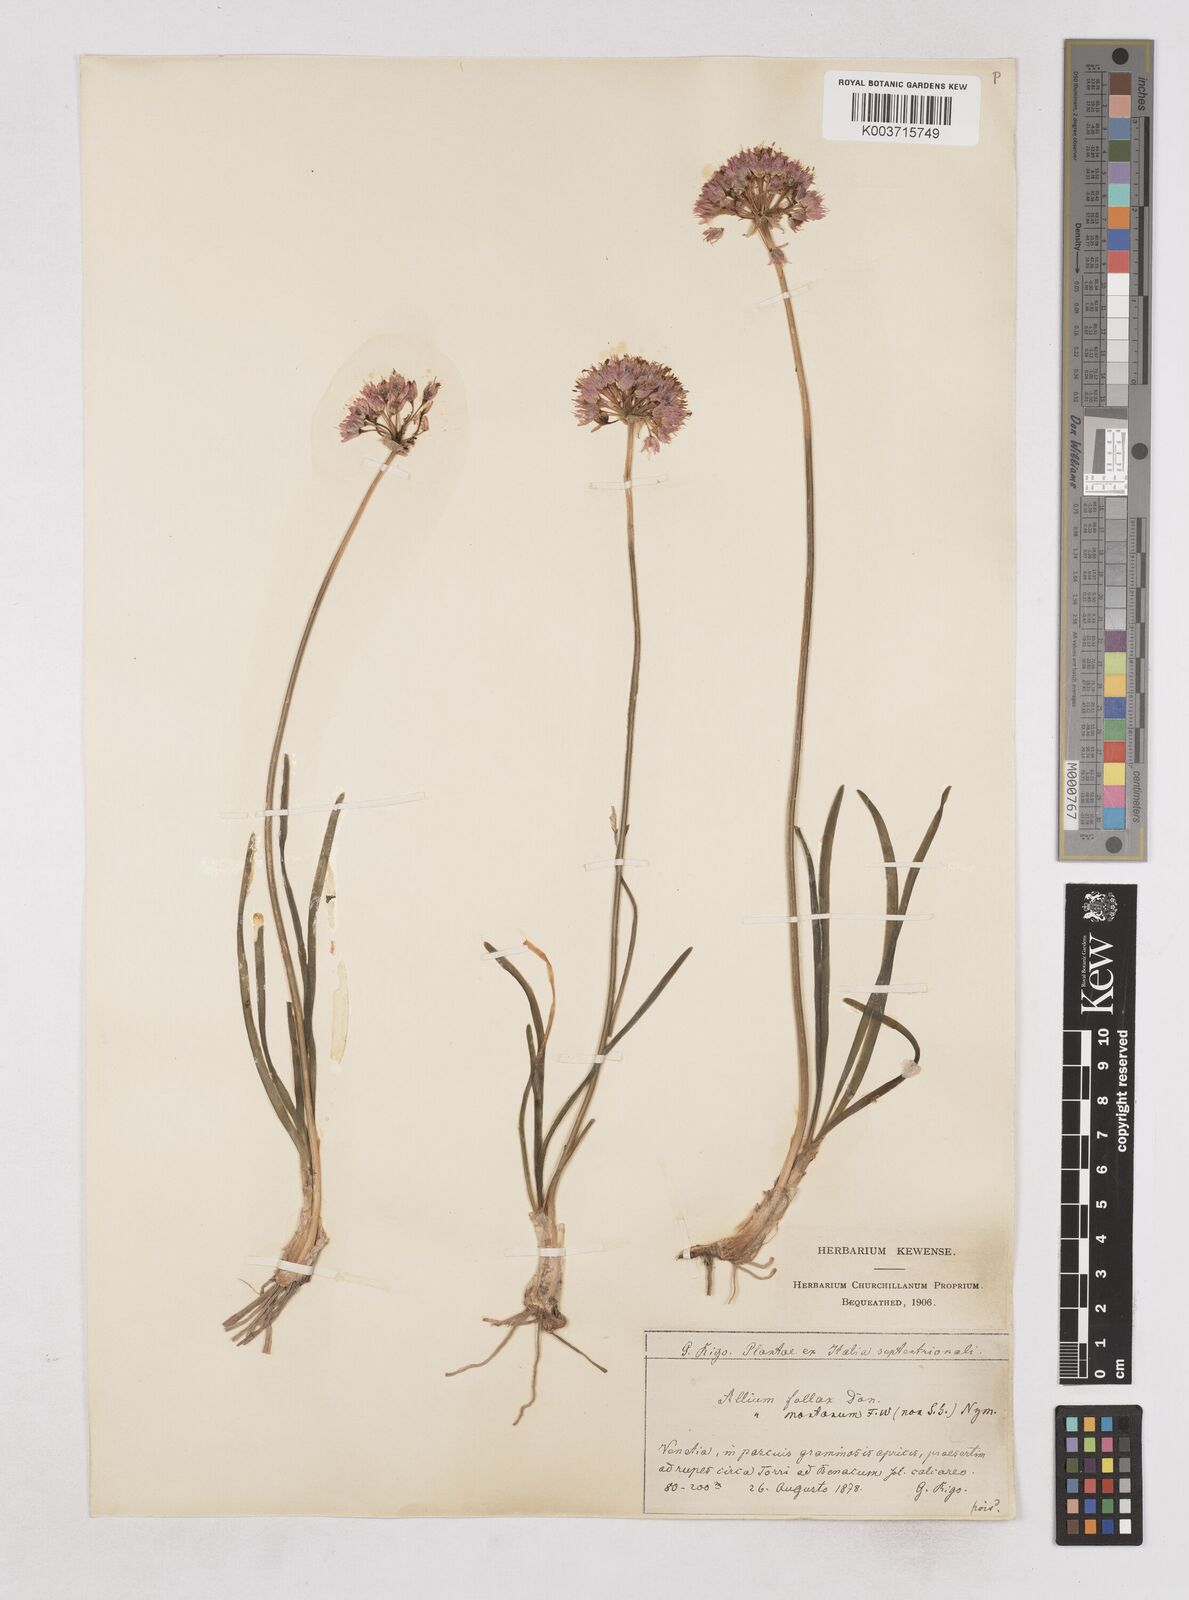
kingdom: Plantae
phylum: Tracheophyta
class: Liliopsida
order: Asparagales
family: Amaryllidaceae
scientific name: Amaryllidaceae
